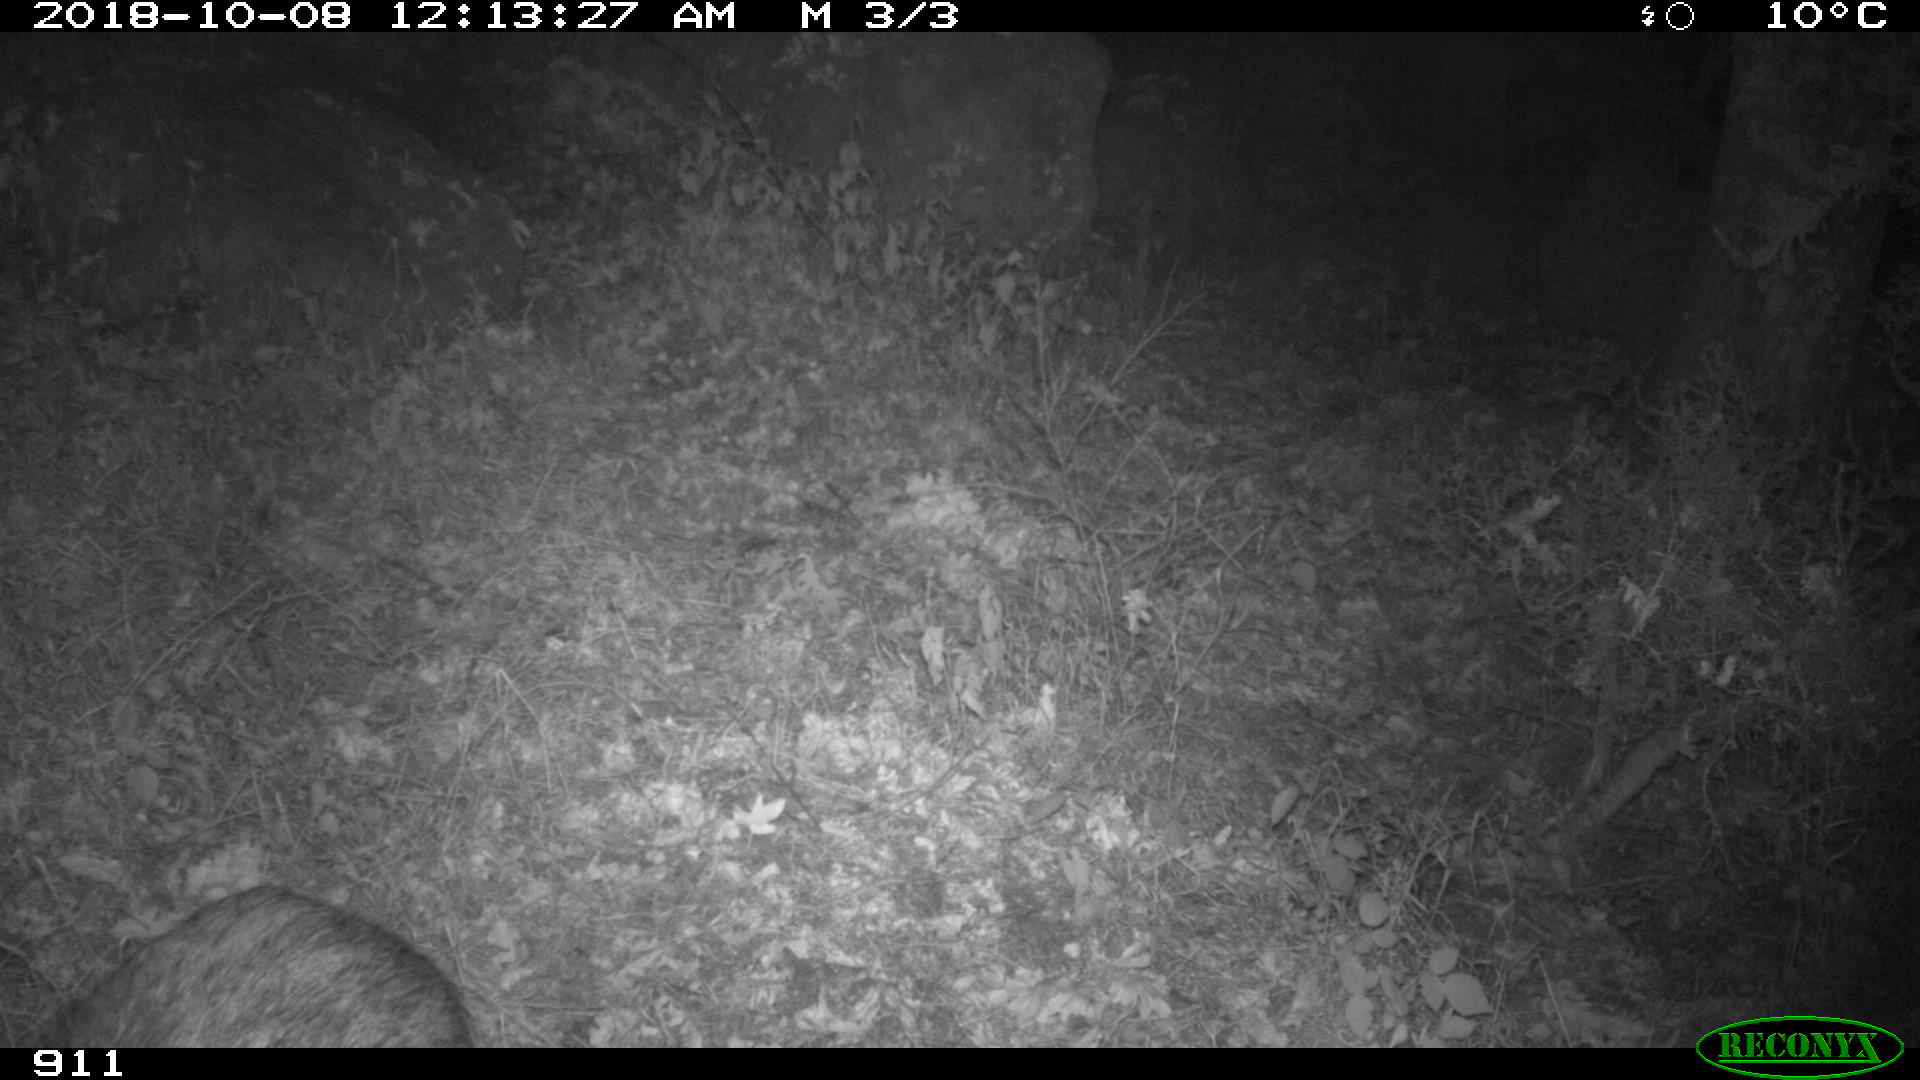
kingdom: Animalia
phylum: Chordata
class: Mammalia
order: Artiodactyla
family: Suidae
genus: Sus
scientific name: Sus scrofa
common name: Wild boar
